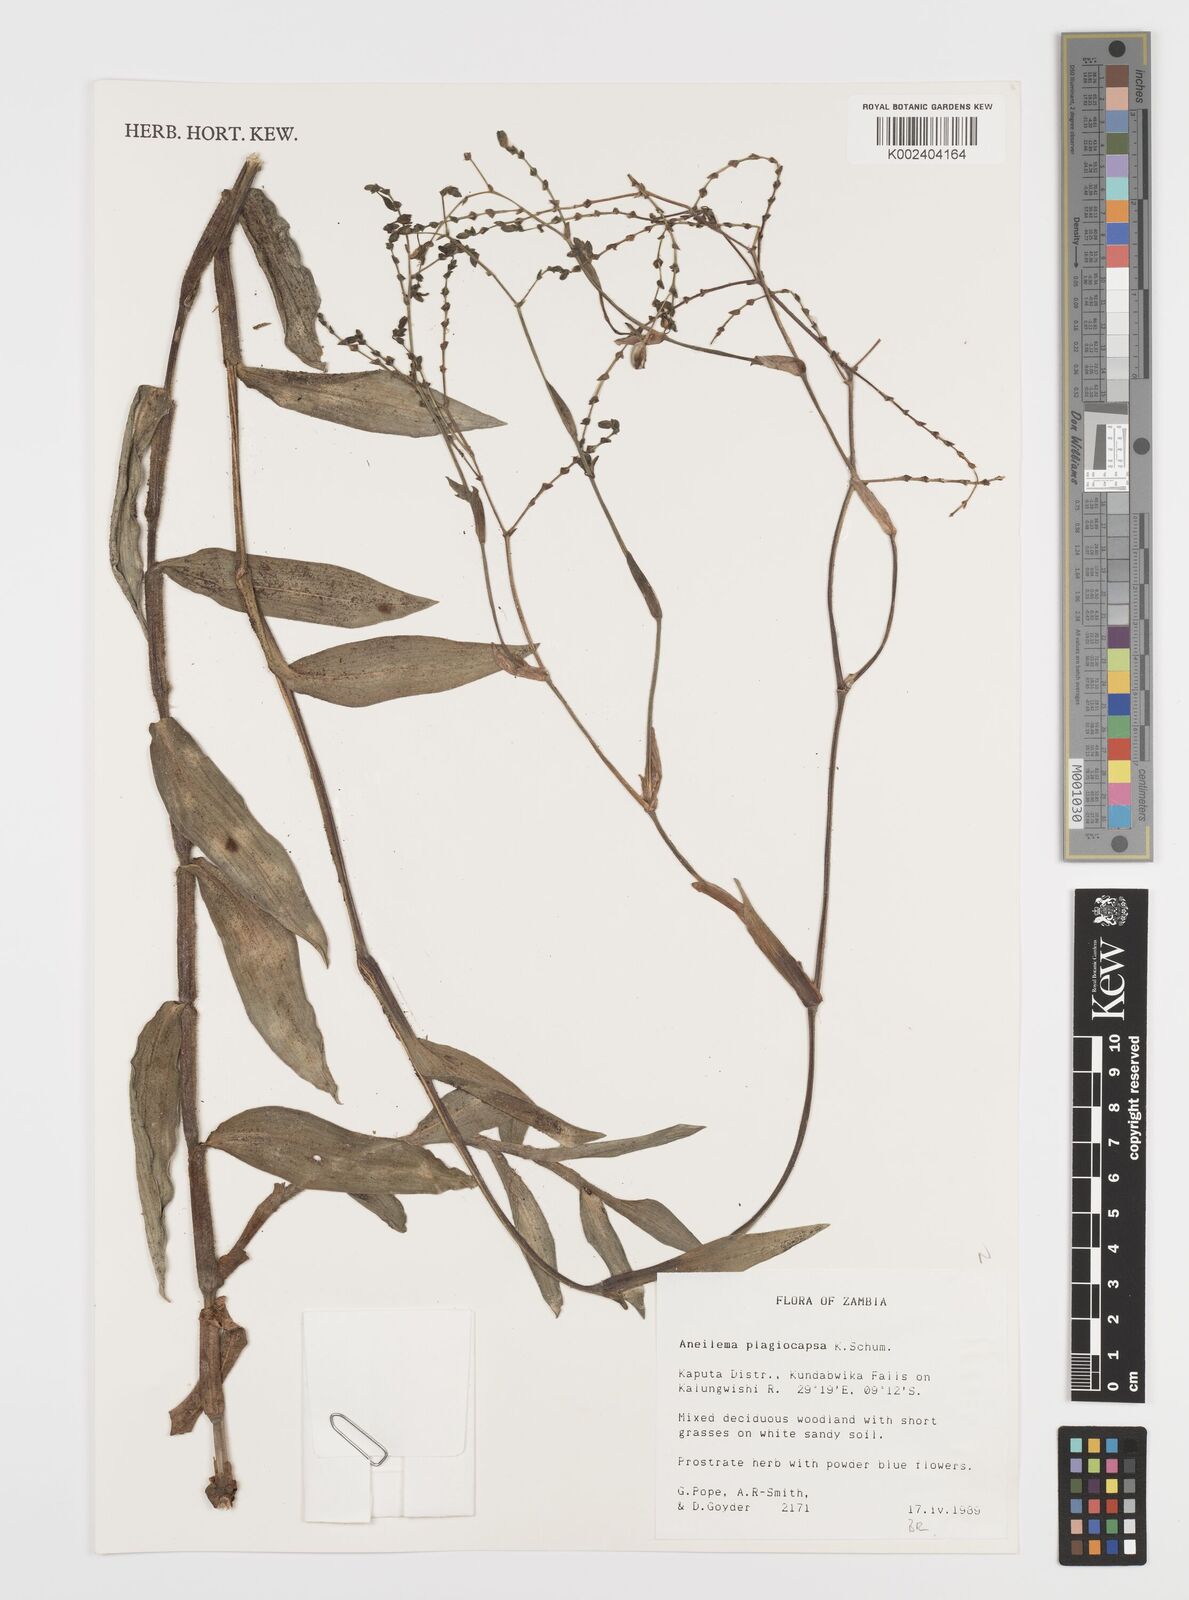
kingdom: Plantae
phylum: Tracheophyta
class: Liliopsida
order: Commelinales
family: Commelinaceae
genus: Aneilema
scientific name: Aneilema plagiocapsa
